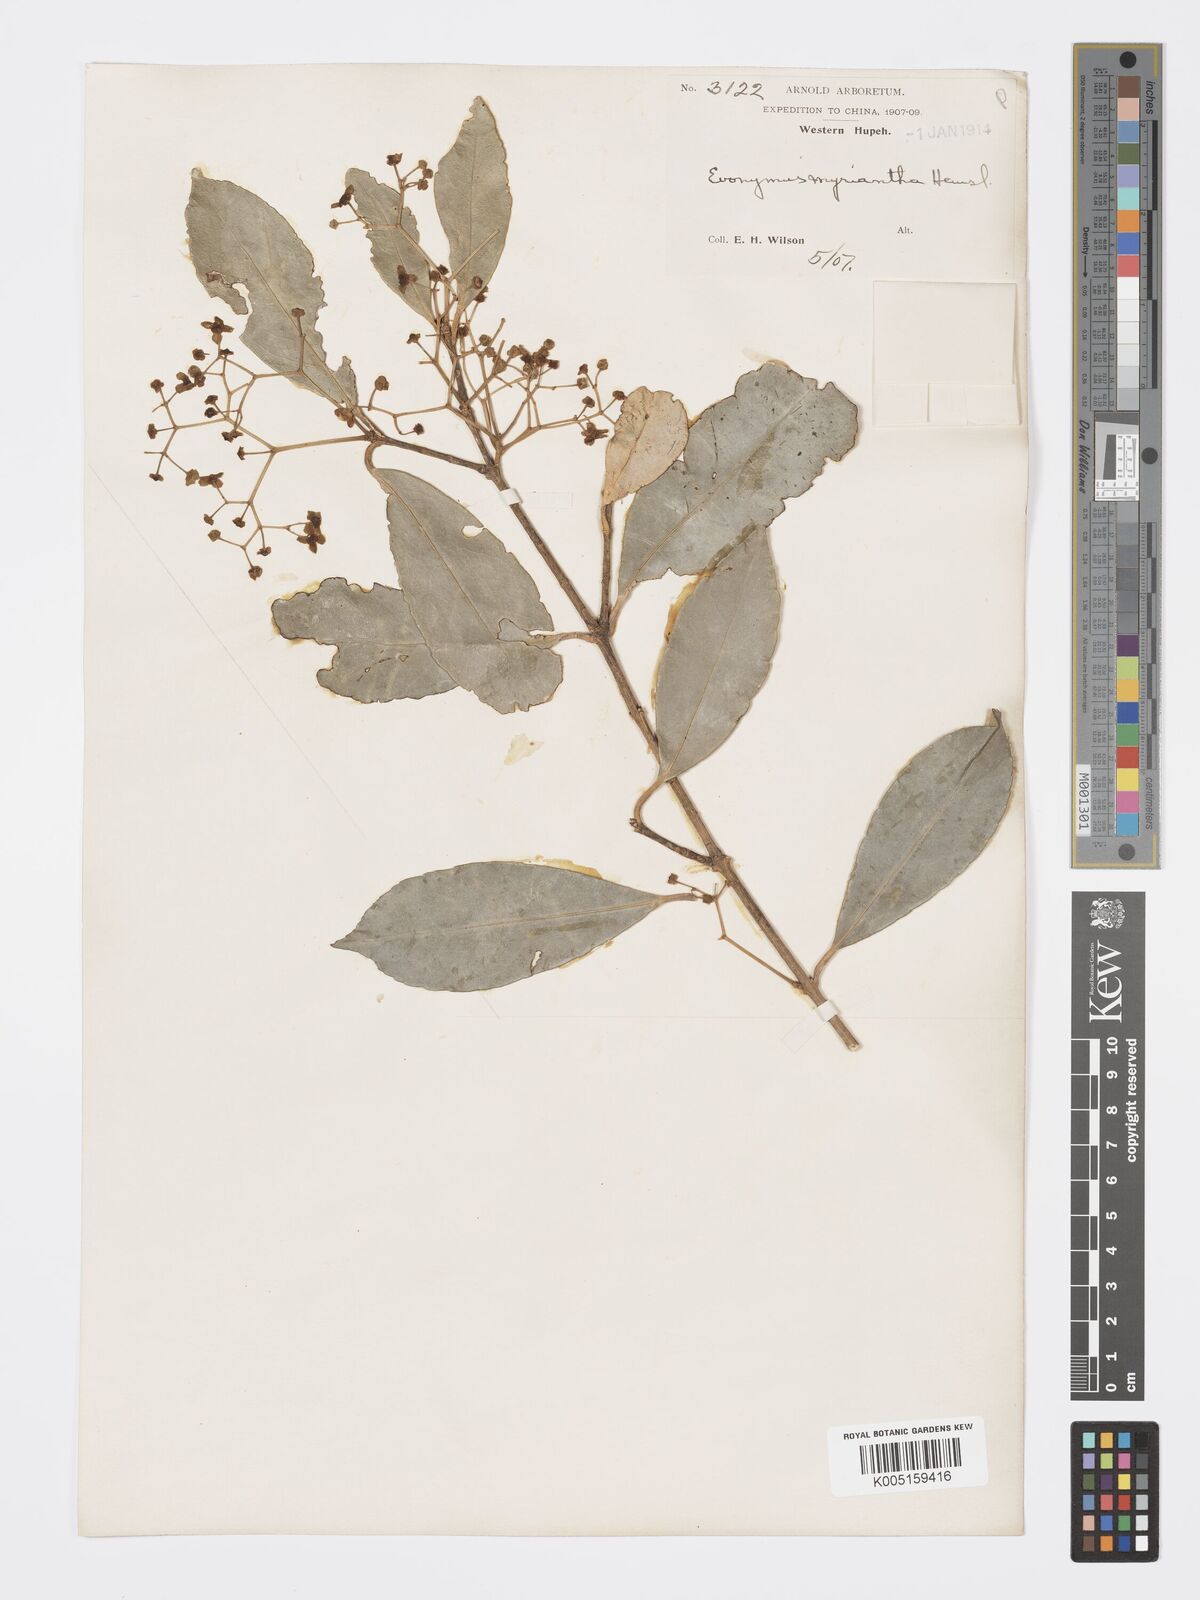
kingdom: Plantae
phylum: Tracheophyta
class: Magnoliopsida
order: Celastrales
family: Celastraceae
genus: Euonymus
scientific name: Euonymus myrianthus
